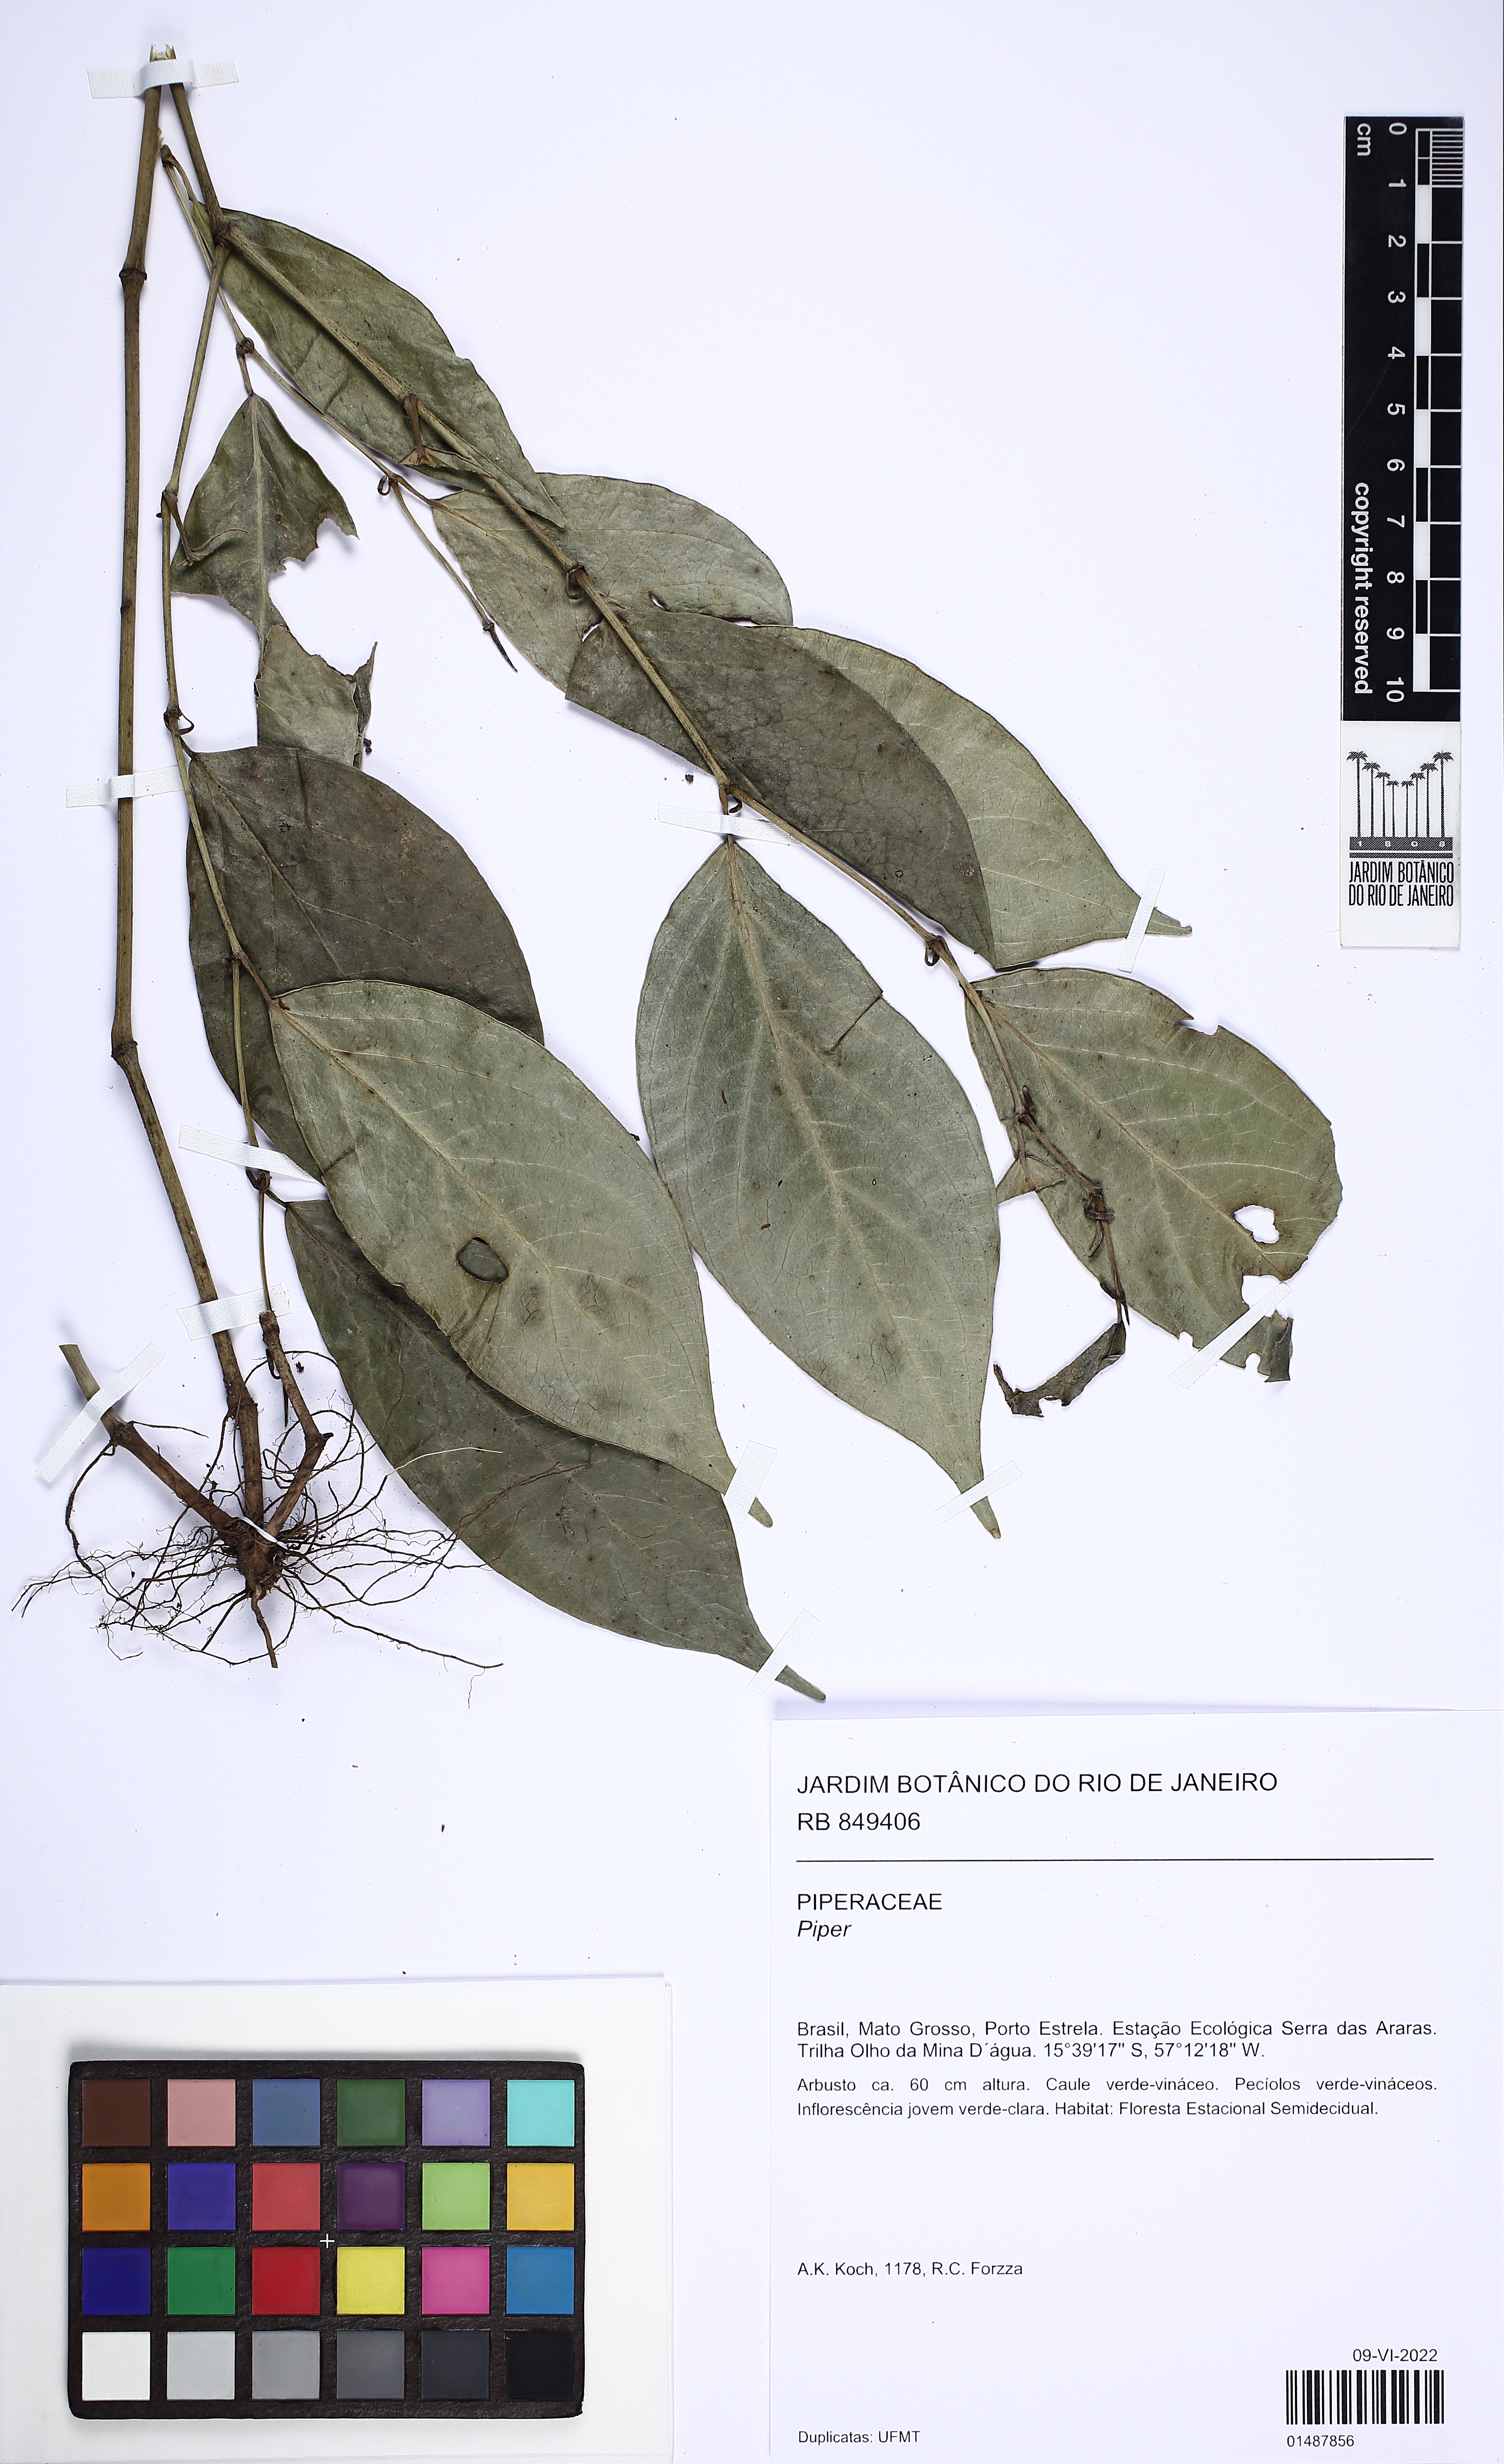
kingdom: Plantae
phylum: Tracheophyta
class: Magnoliopsida
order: Piperales
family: Piperaceae
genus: Piper
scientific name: Piper
